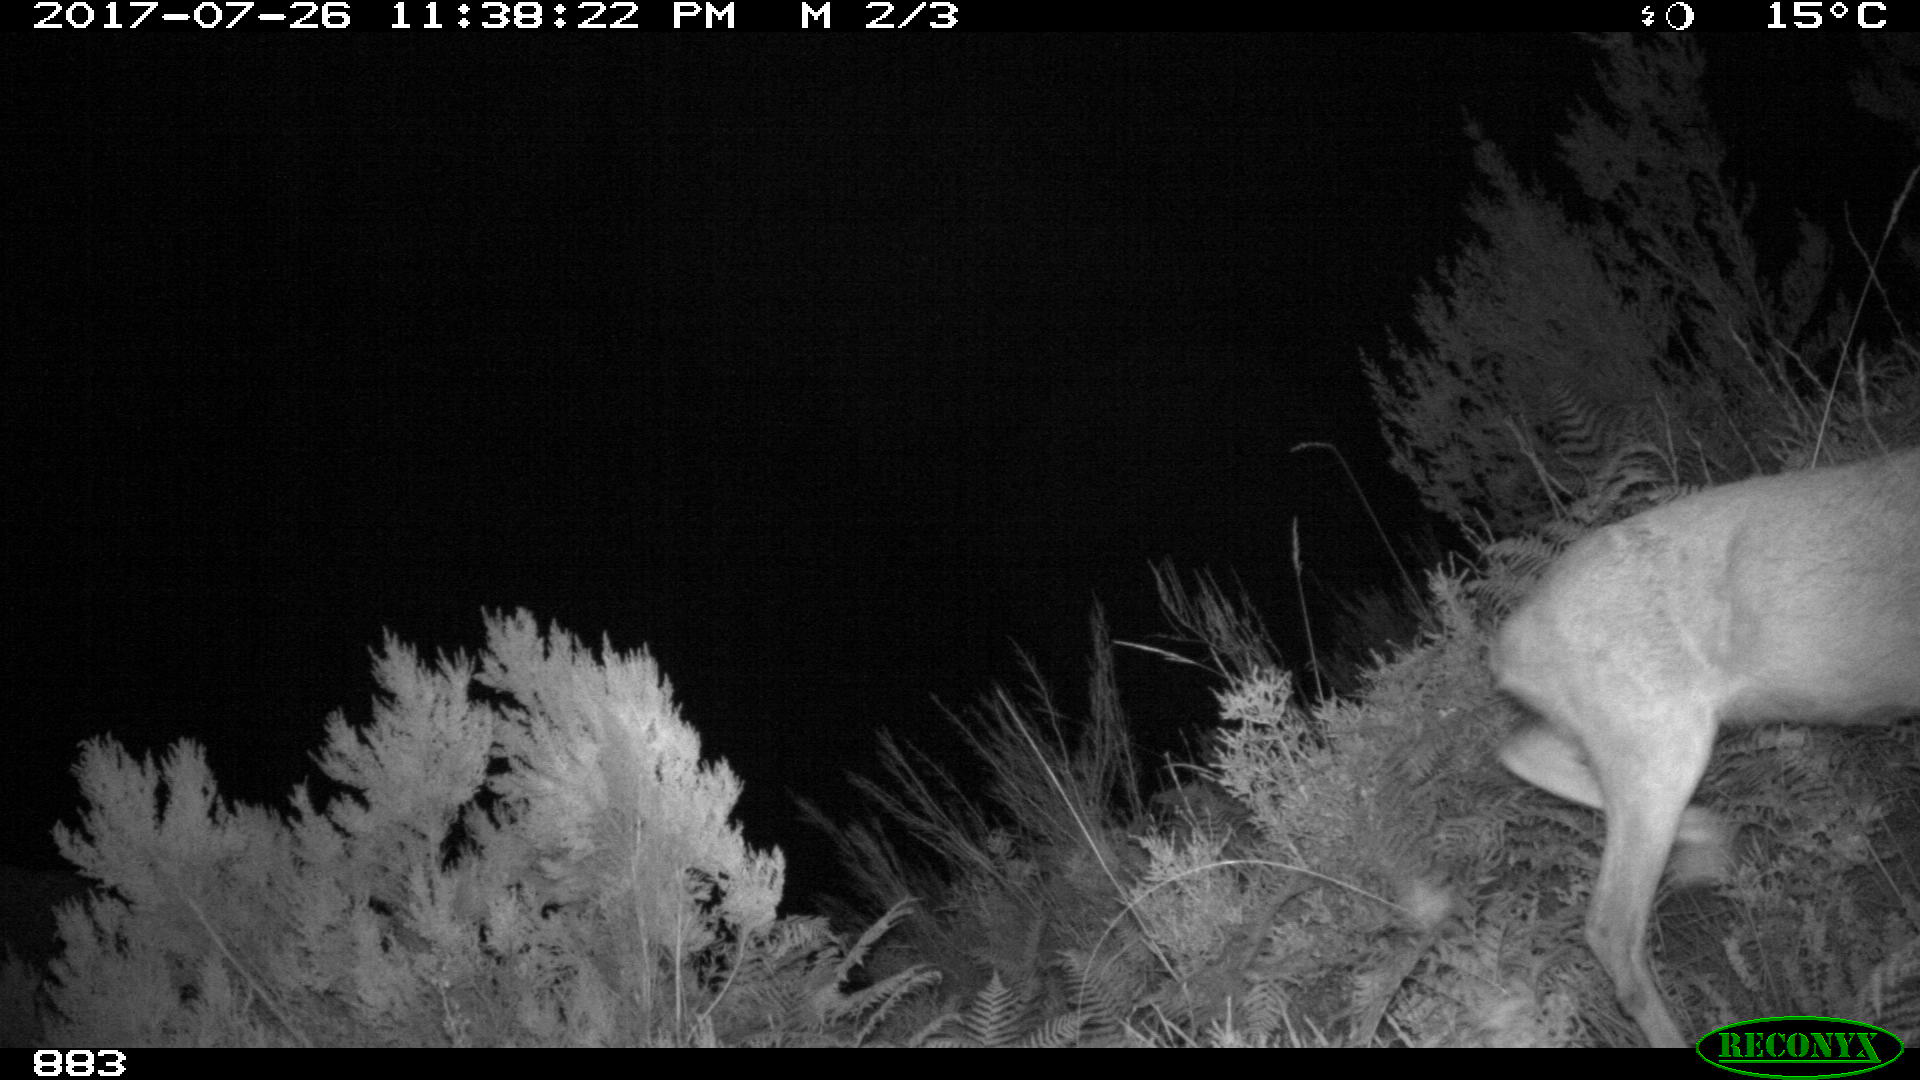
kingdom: Animalia
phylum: Chordata
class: Mammalia
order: Artiodactyla
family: Cervidae
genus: Capreolus
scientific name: Capreolus capreolus
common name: Western roe deer
